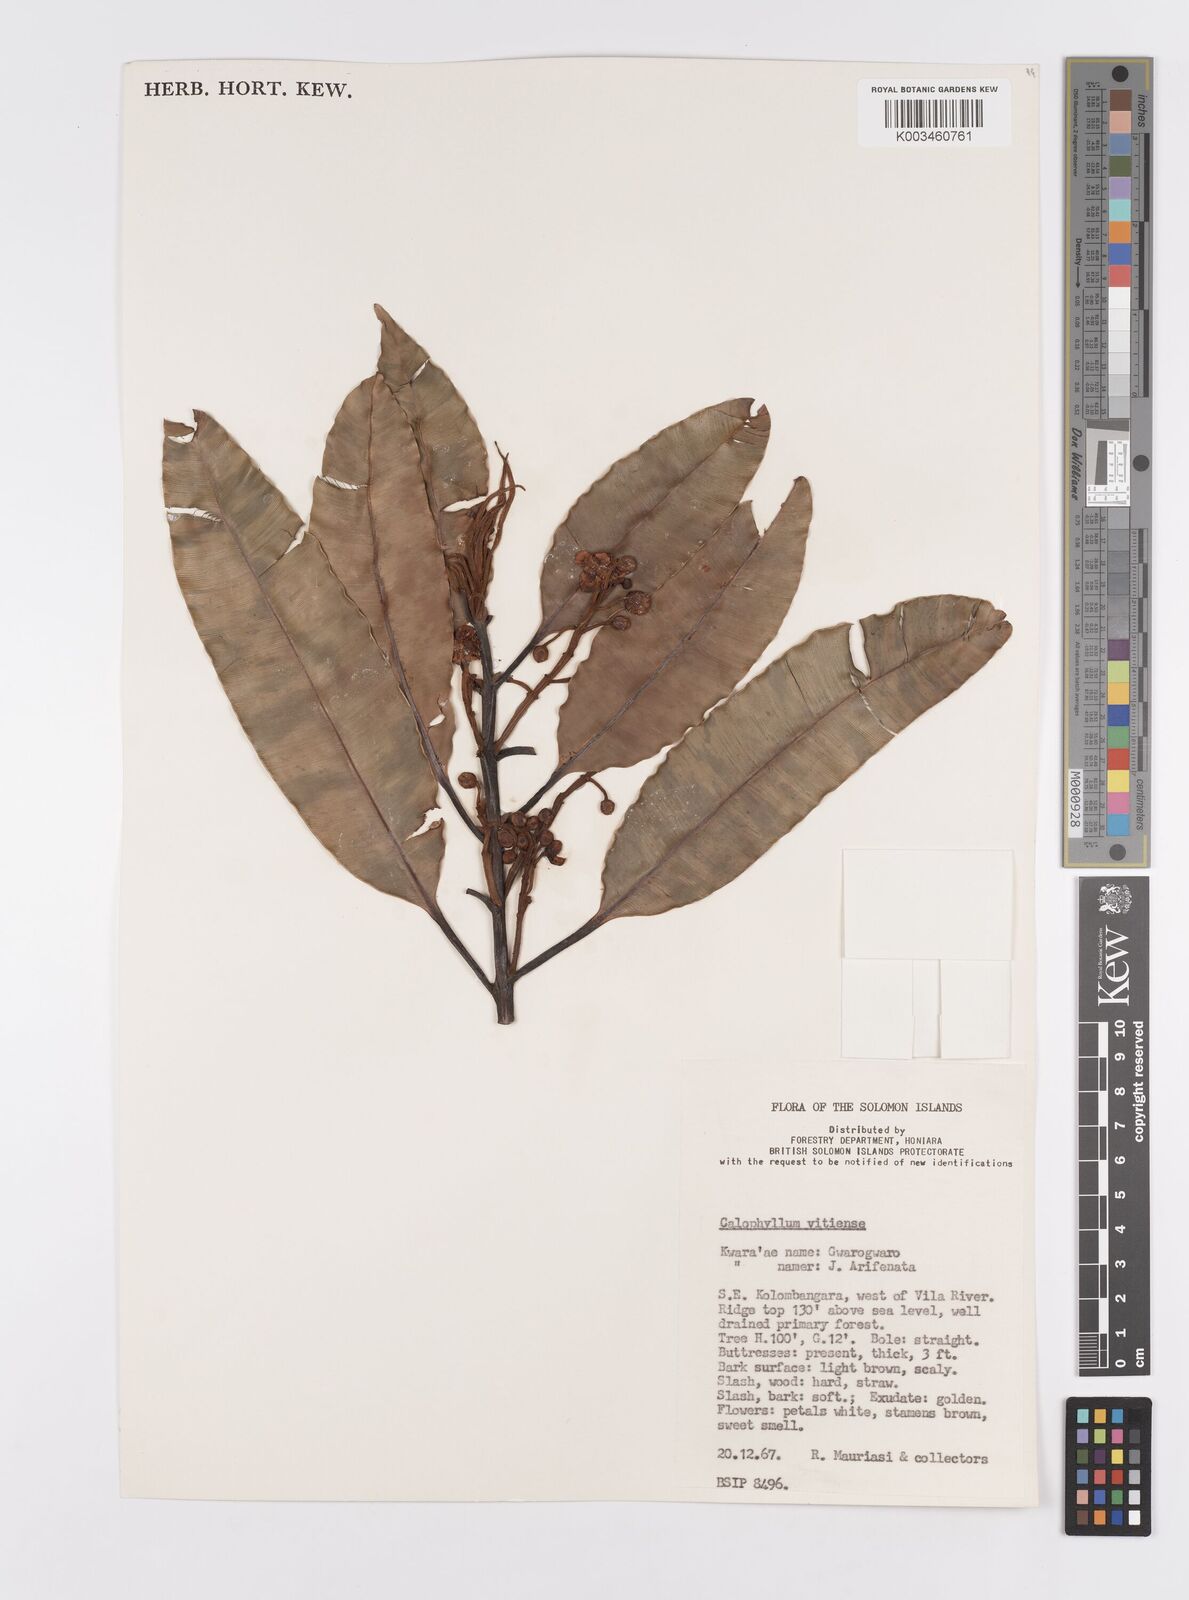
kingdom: Plantae
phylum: Tracheophyta
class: Magnoliopsida
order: Malpighiales
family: Calophyllaceae
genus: Calophyllum
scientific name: Calophyllum vitiense
